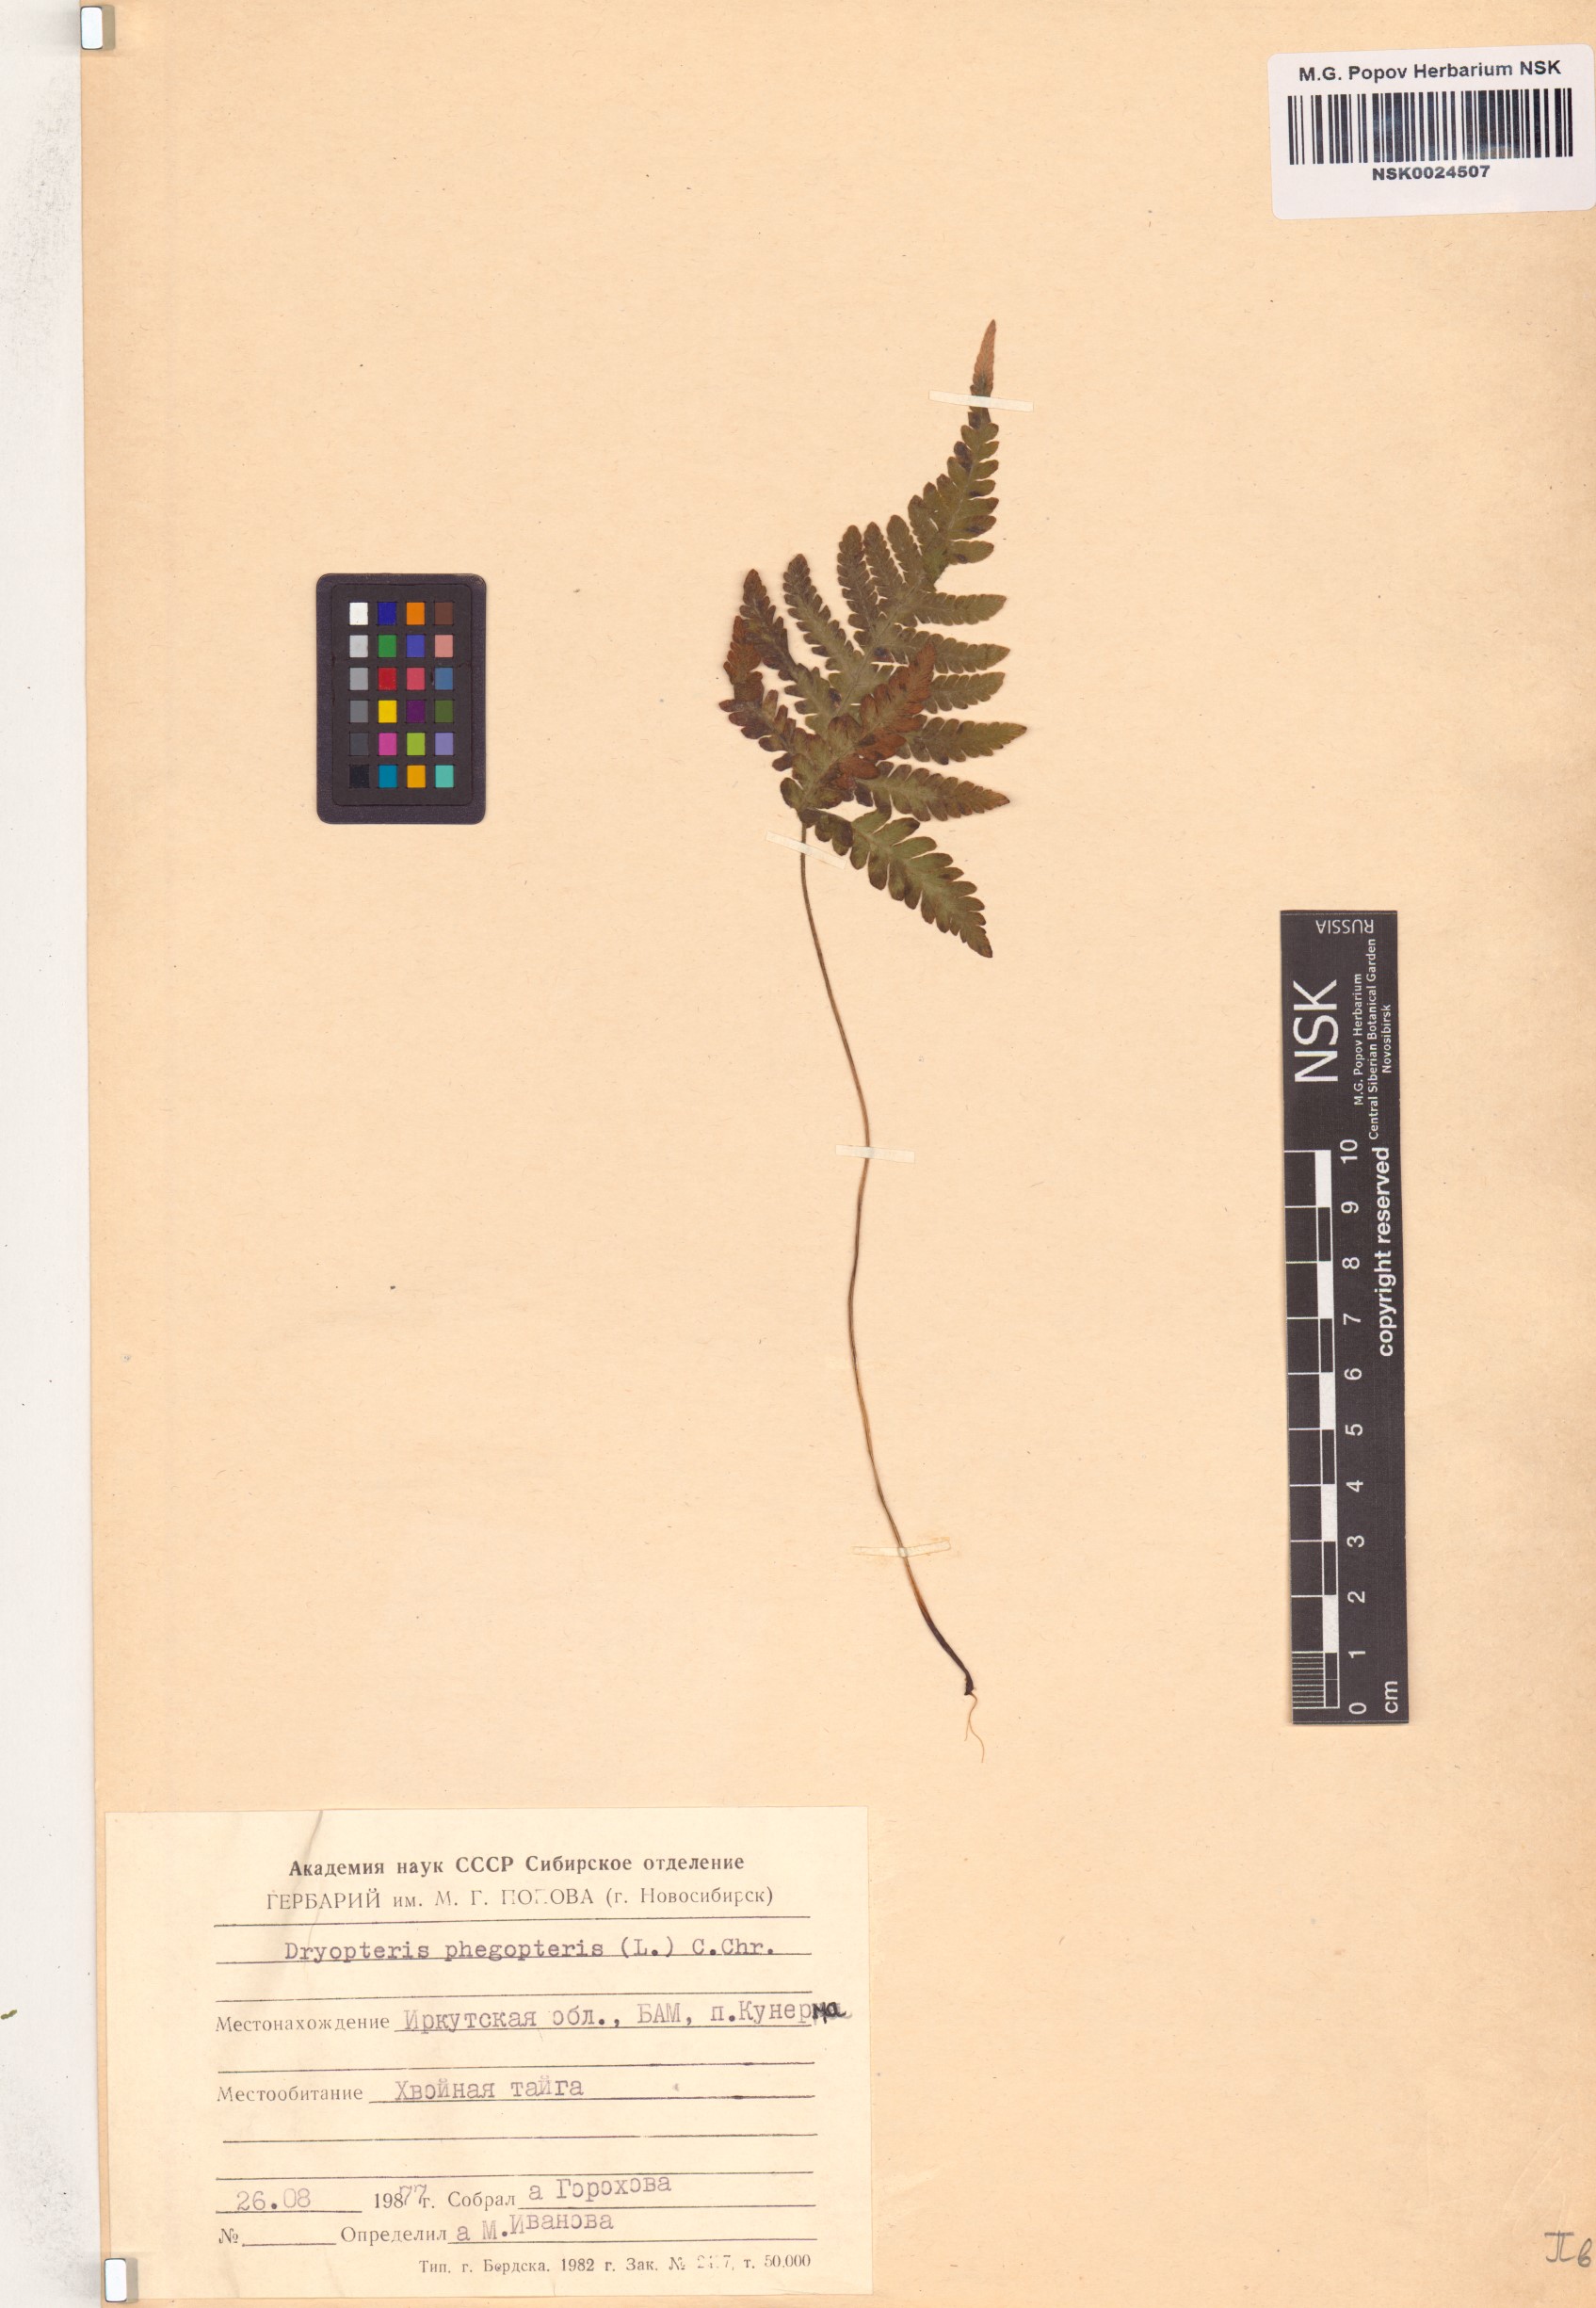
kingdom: Plantae
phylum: Tracheophyta
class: Polypodiopsida
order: Polypodiales
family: Thelypteridaceae
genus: Phegopteris
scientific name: Phegopteris connectilis
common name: Beech fern
